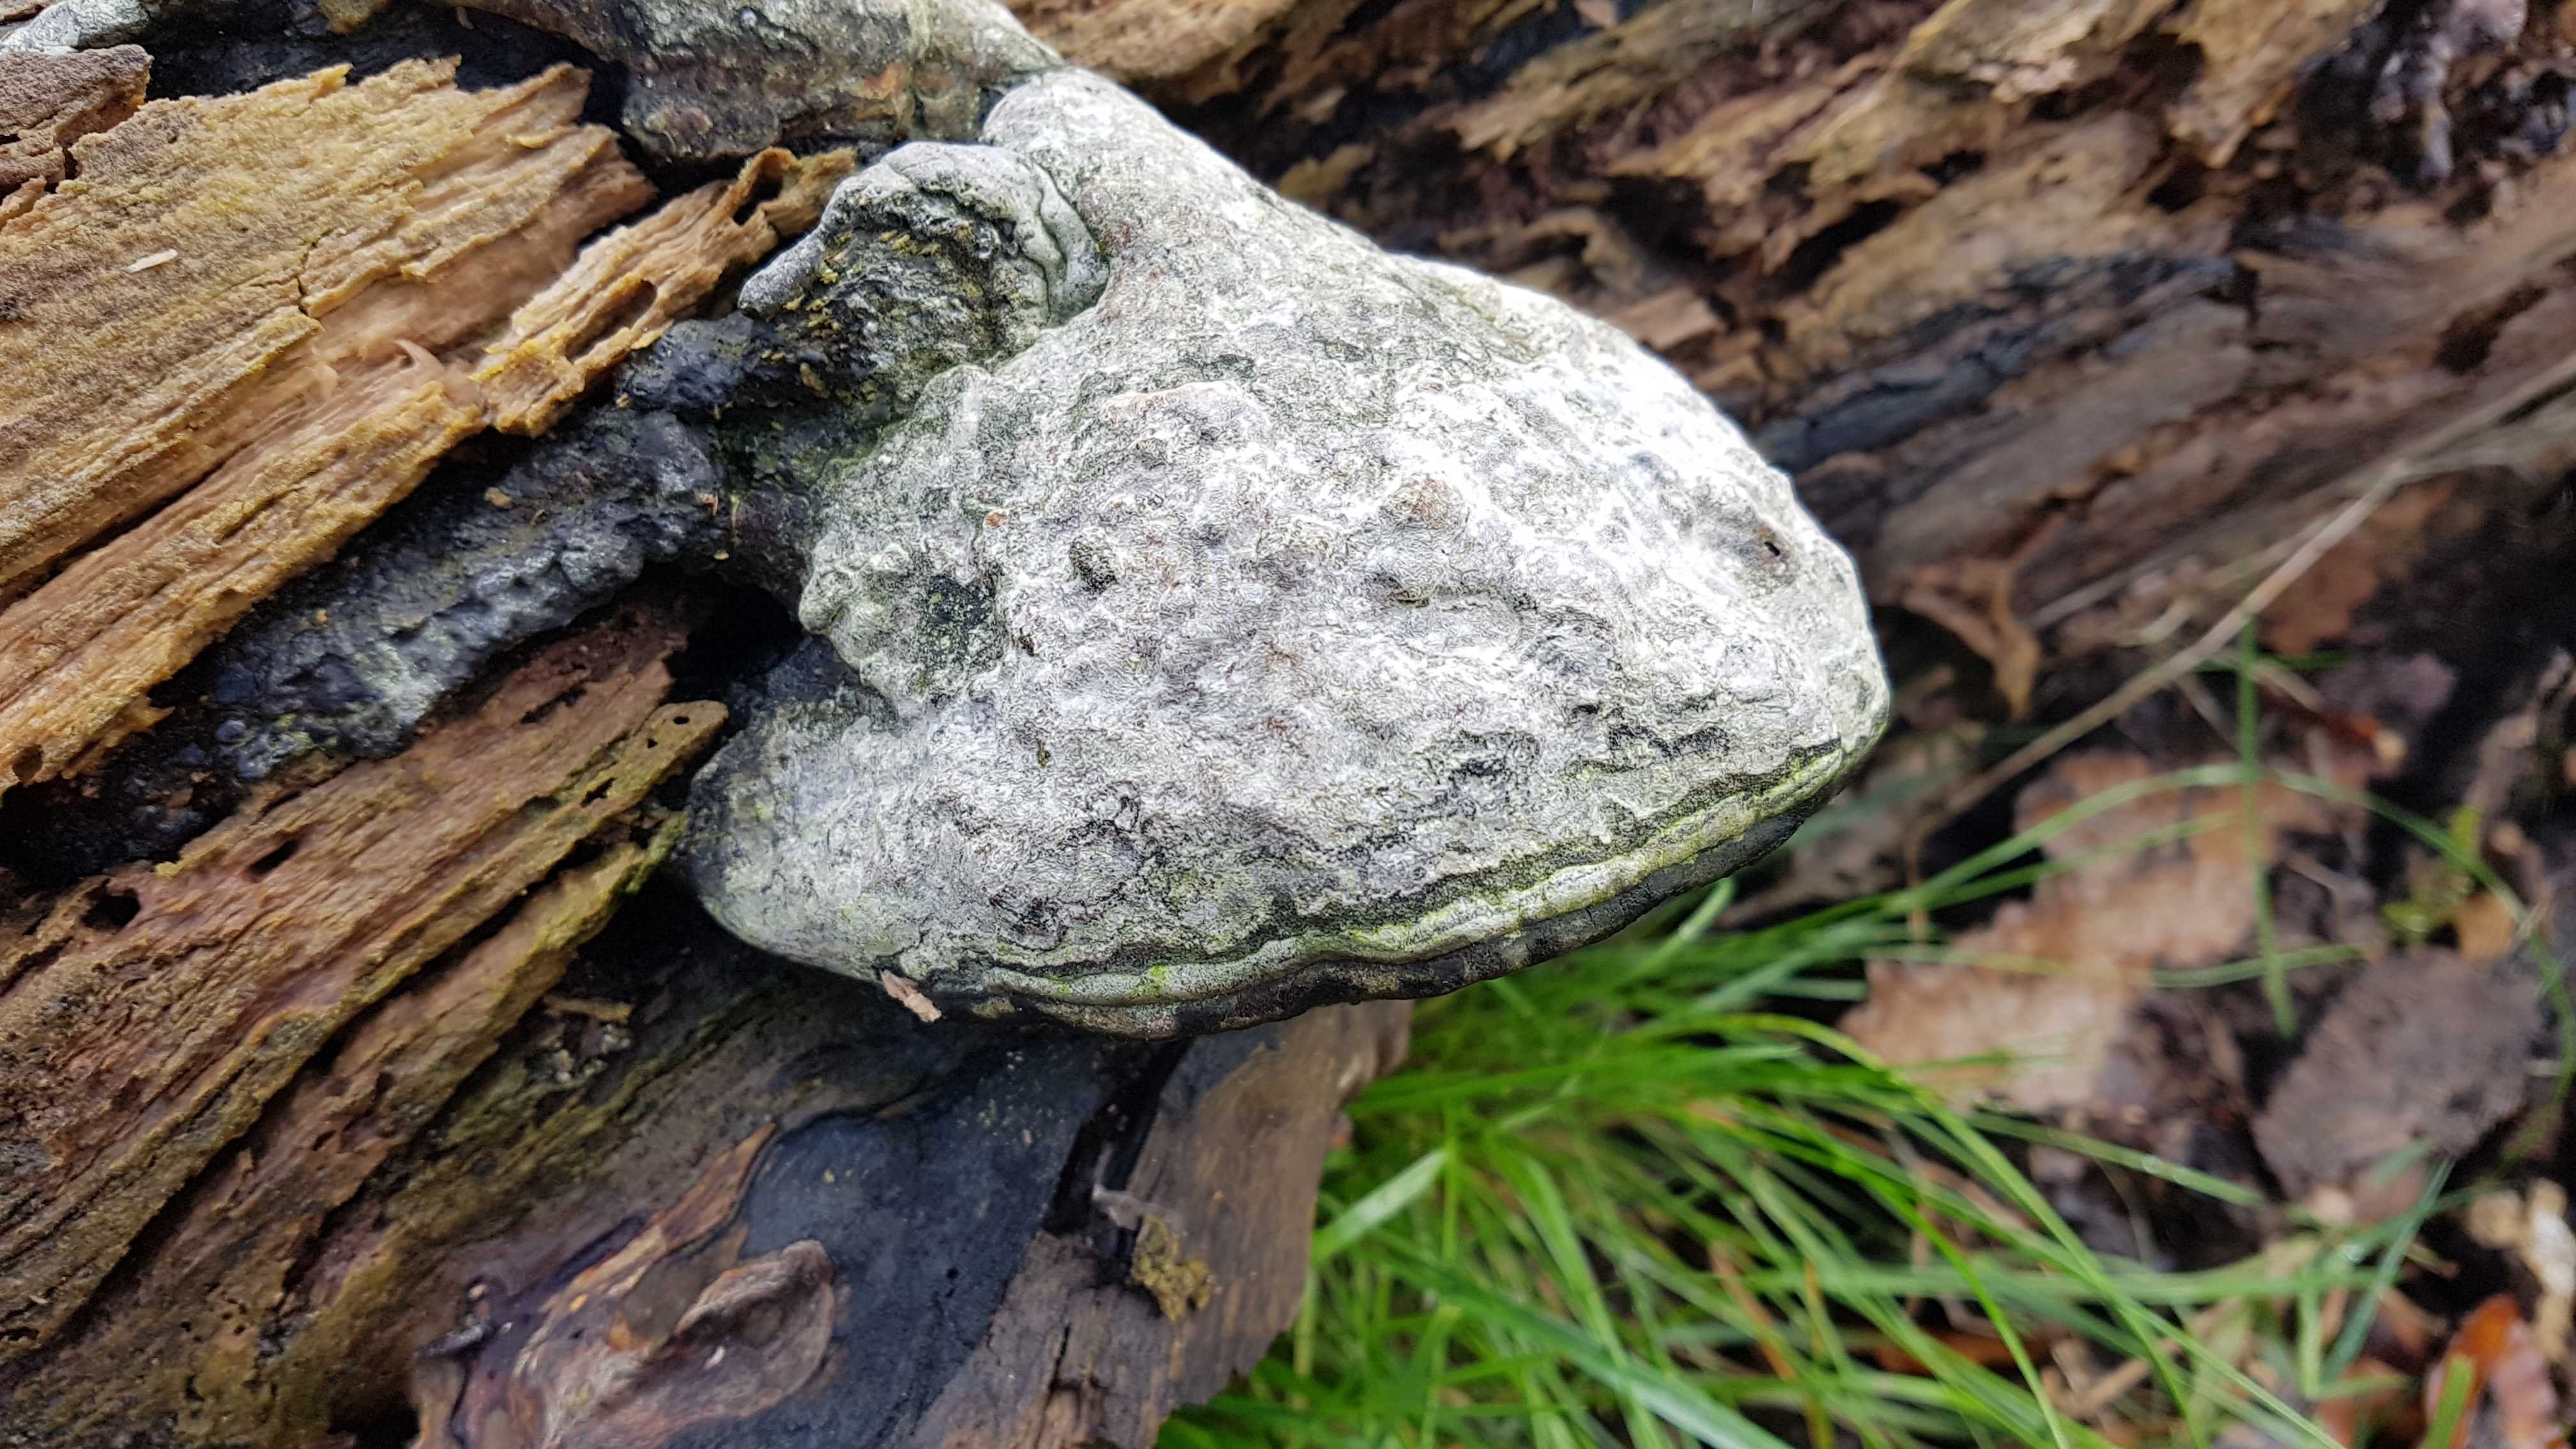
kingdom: Fungi
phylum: Basidiomycota
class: Agaricomycetes
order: Polyporales
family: Polyporaceae
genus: Fomes
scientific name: Fomes fomentarius
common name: tøndersvamp
